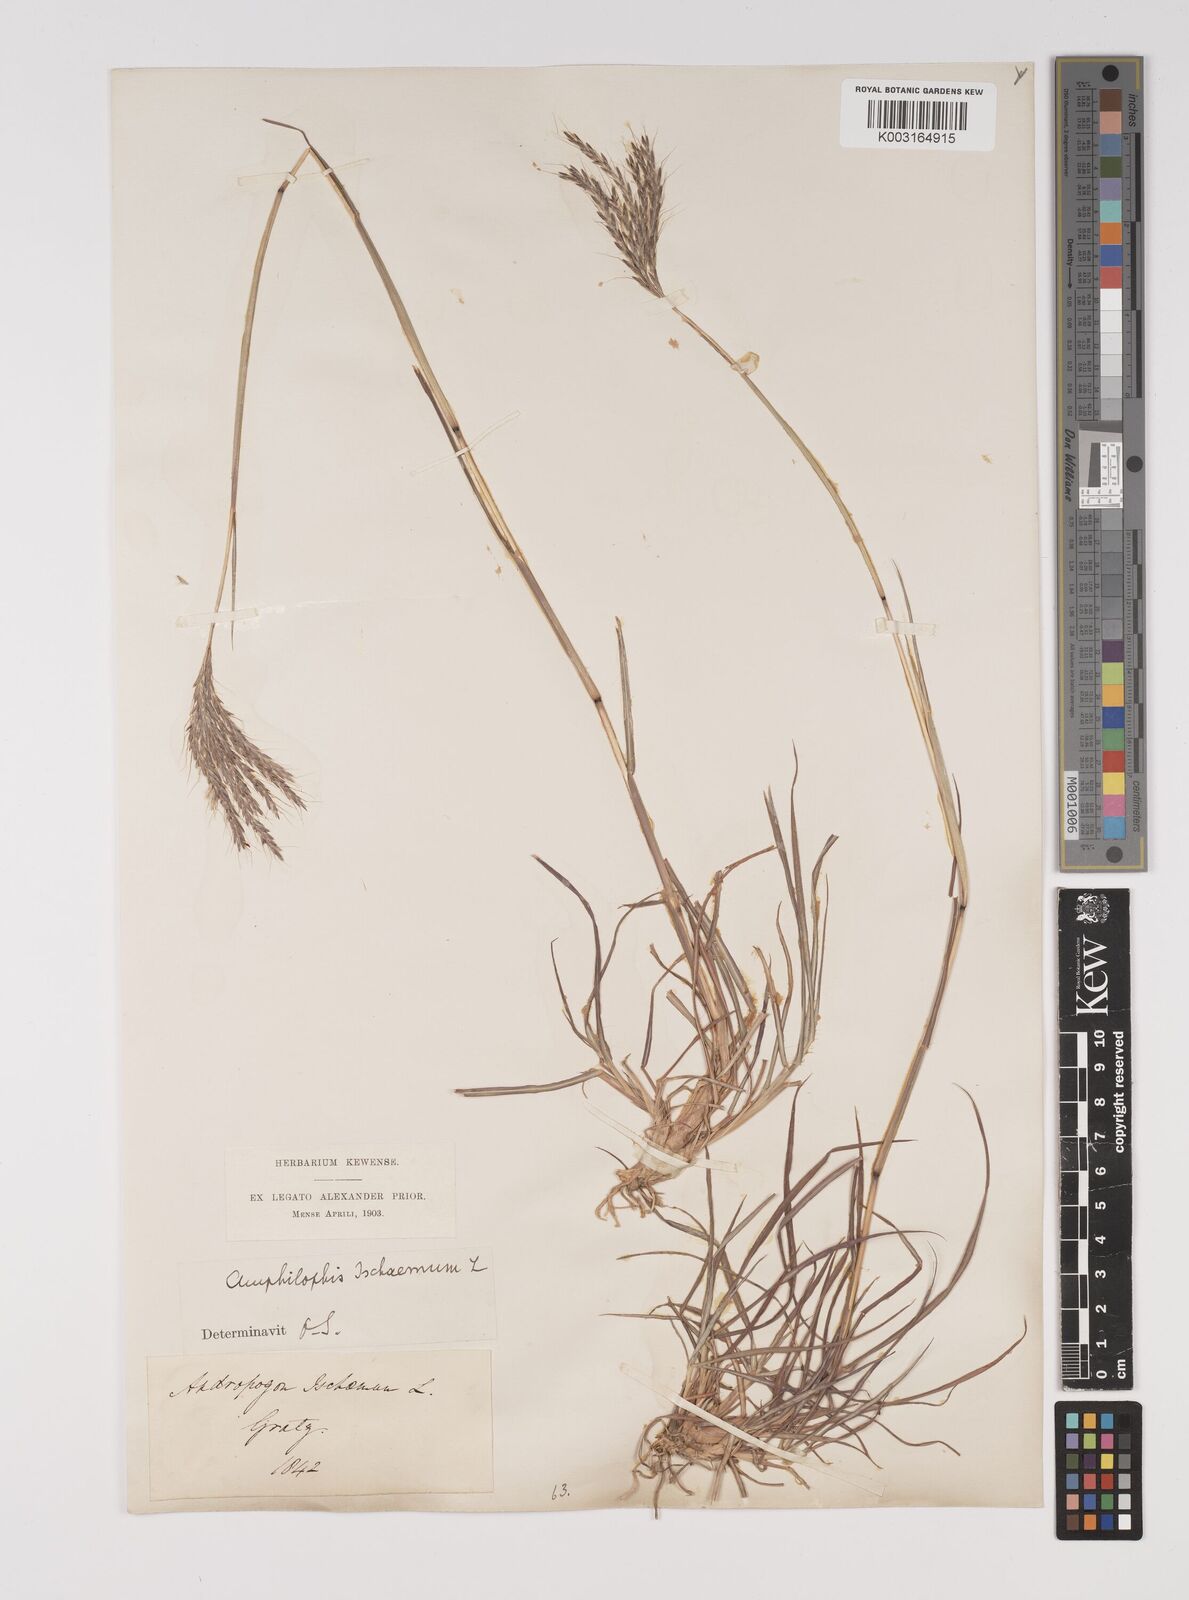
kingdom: Plantae
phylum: Tracheophyta
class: Liliopsida
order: Poales
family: Poaceae
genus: Bothriochloa
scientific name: Bothriochloa ischaemum
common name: Yellow bluestem
